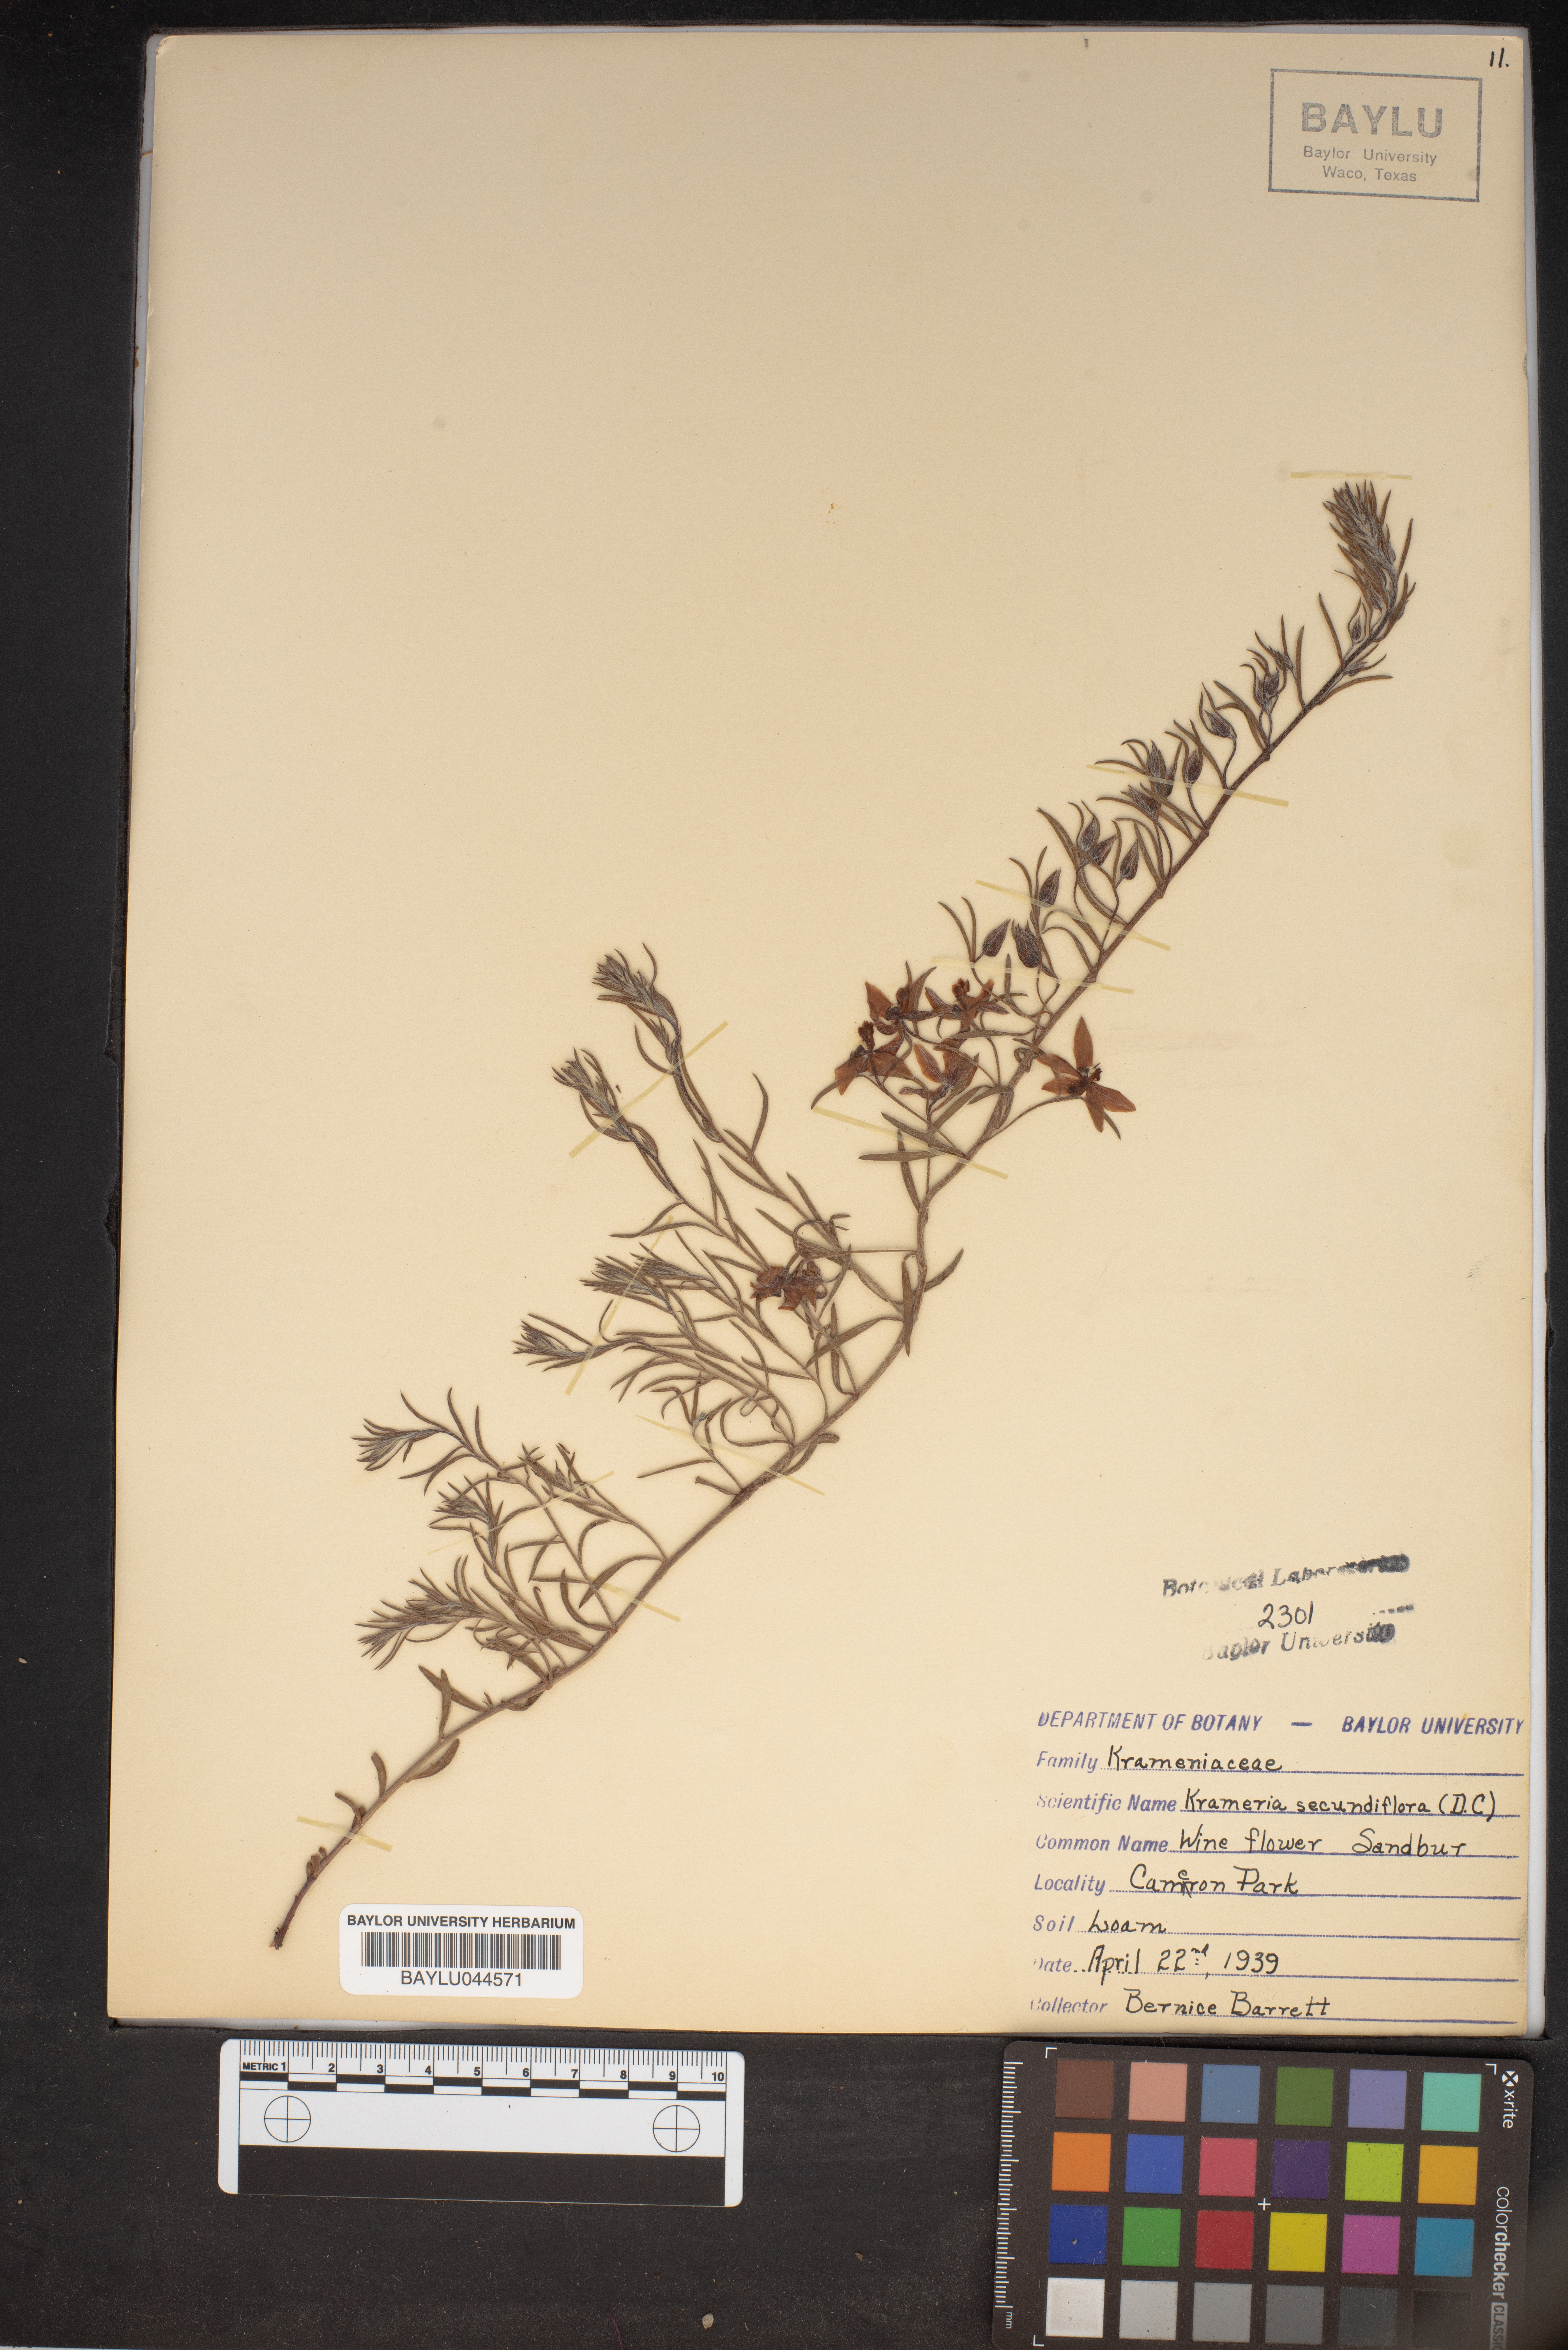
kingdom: Plantae
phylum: Tracheophyta
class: Magnoliopsida
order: Zygophyllales
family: Krameriaceae
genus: Krameria
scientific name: Krameria secundiflora
